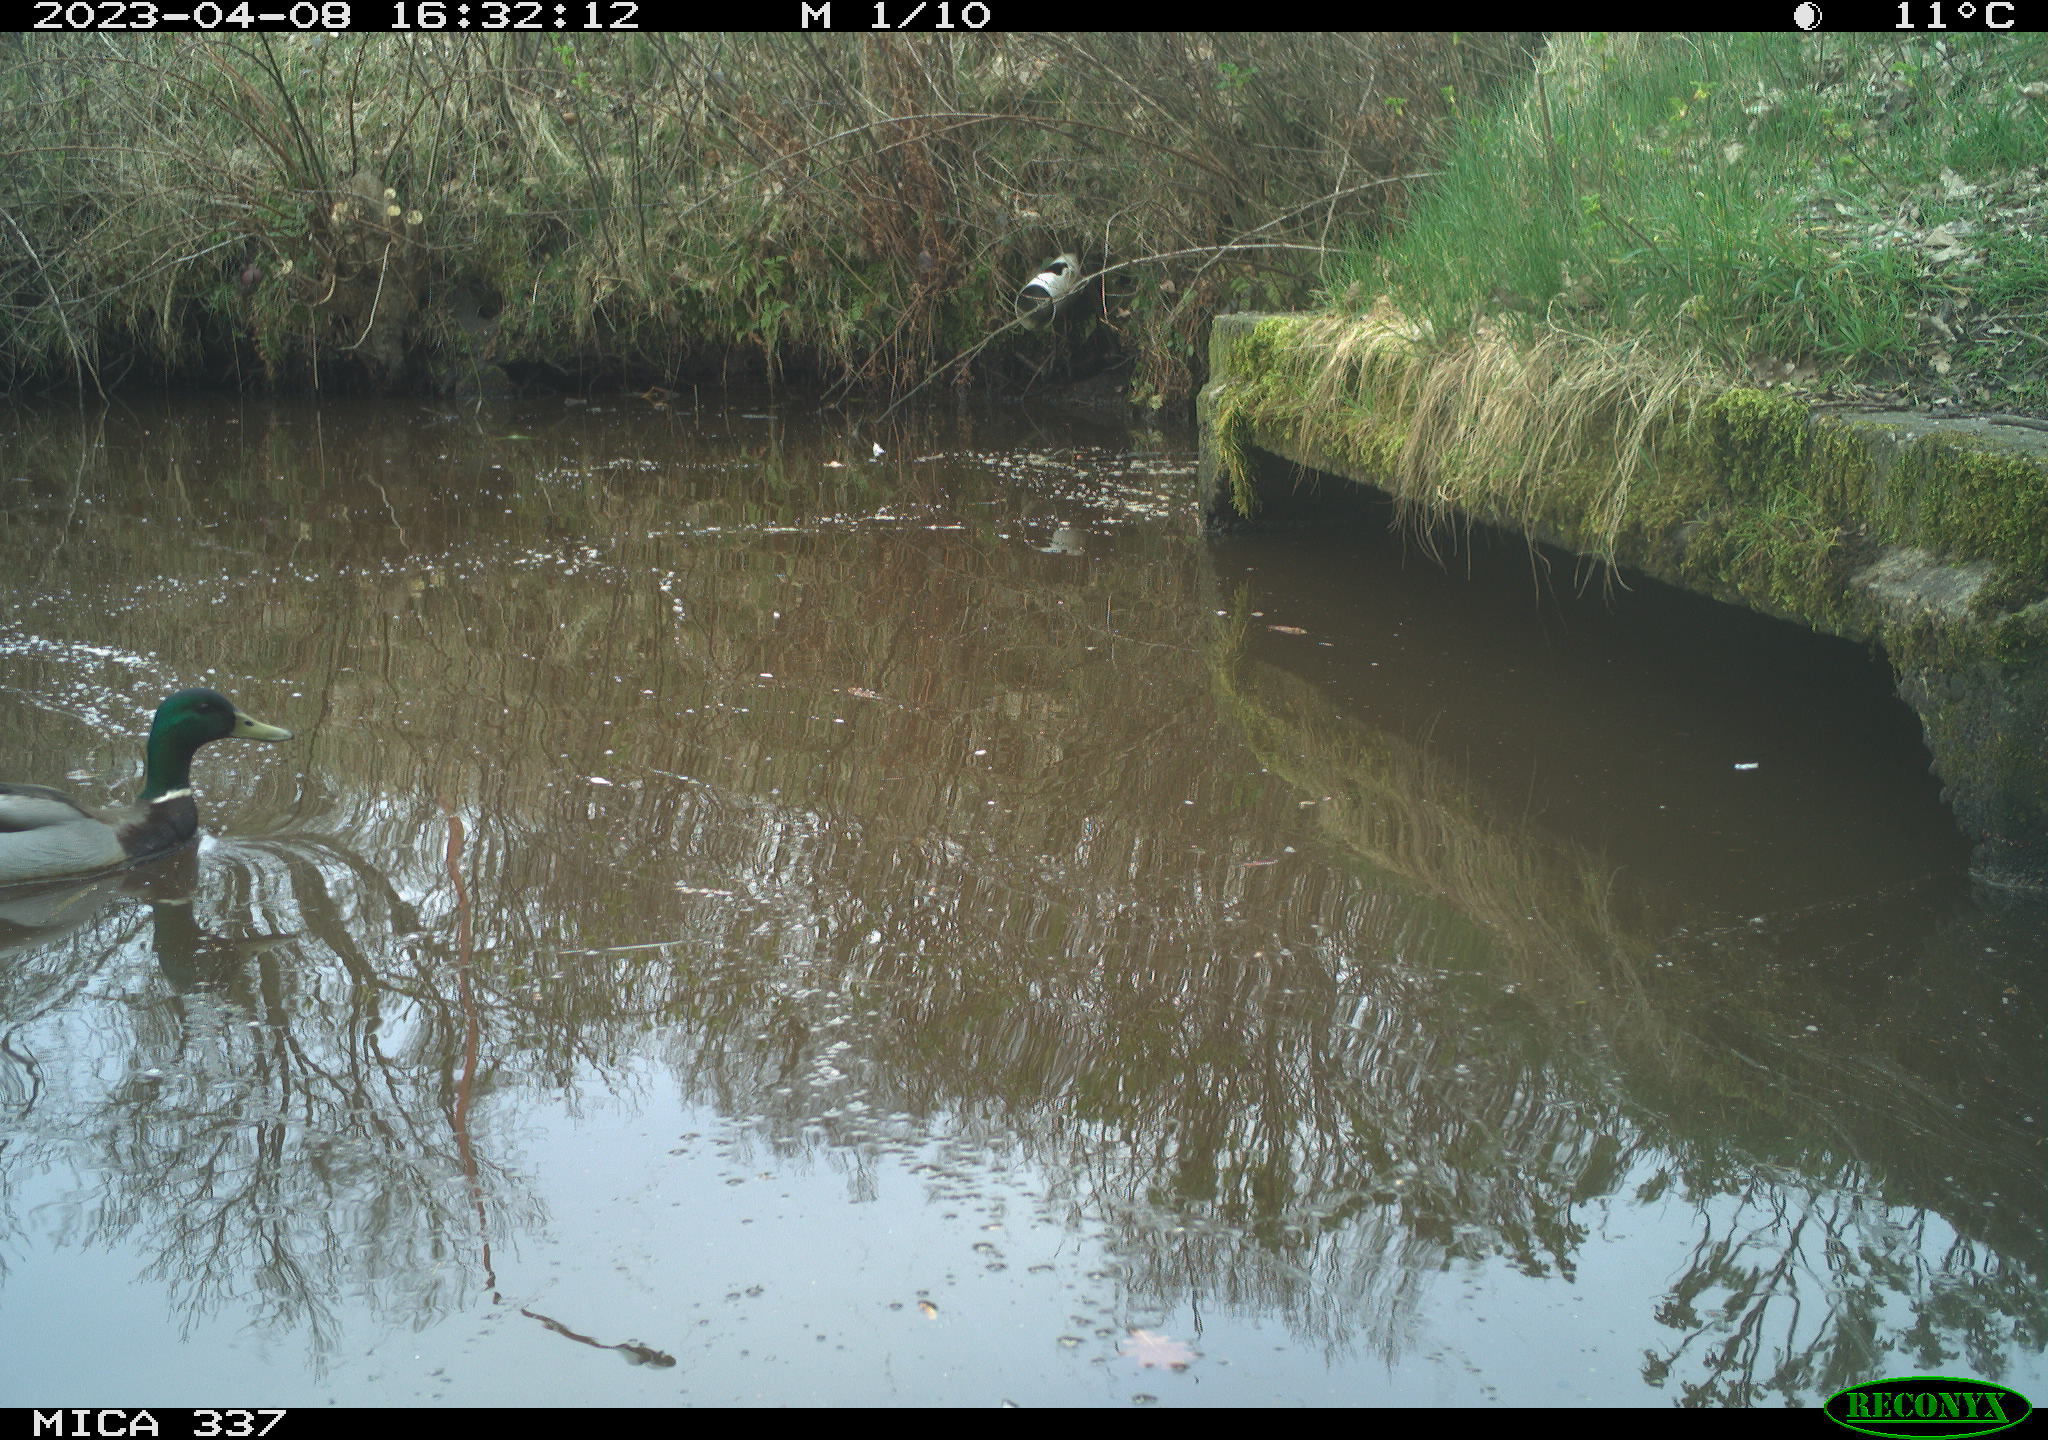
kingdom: Animalia
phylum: Chordata
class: Aves
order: Anseriformes
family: Anatidae
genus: Anas
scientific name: Anas
